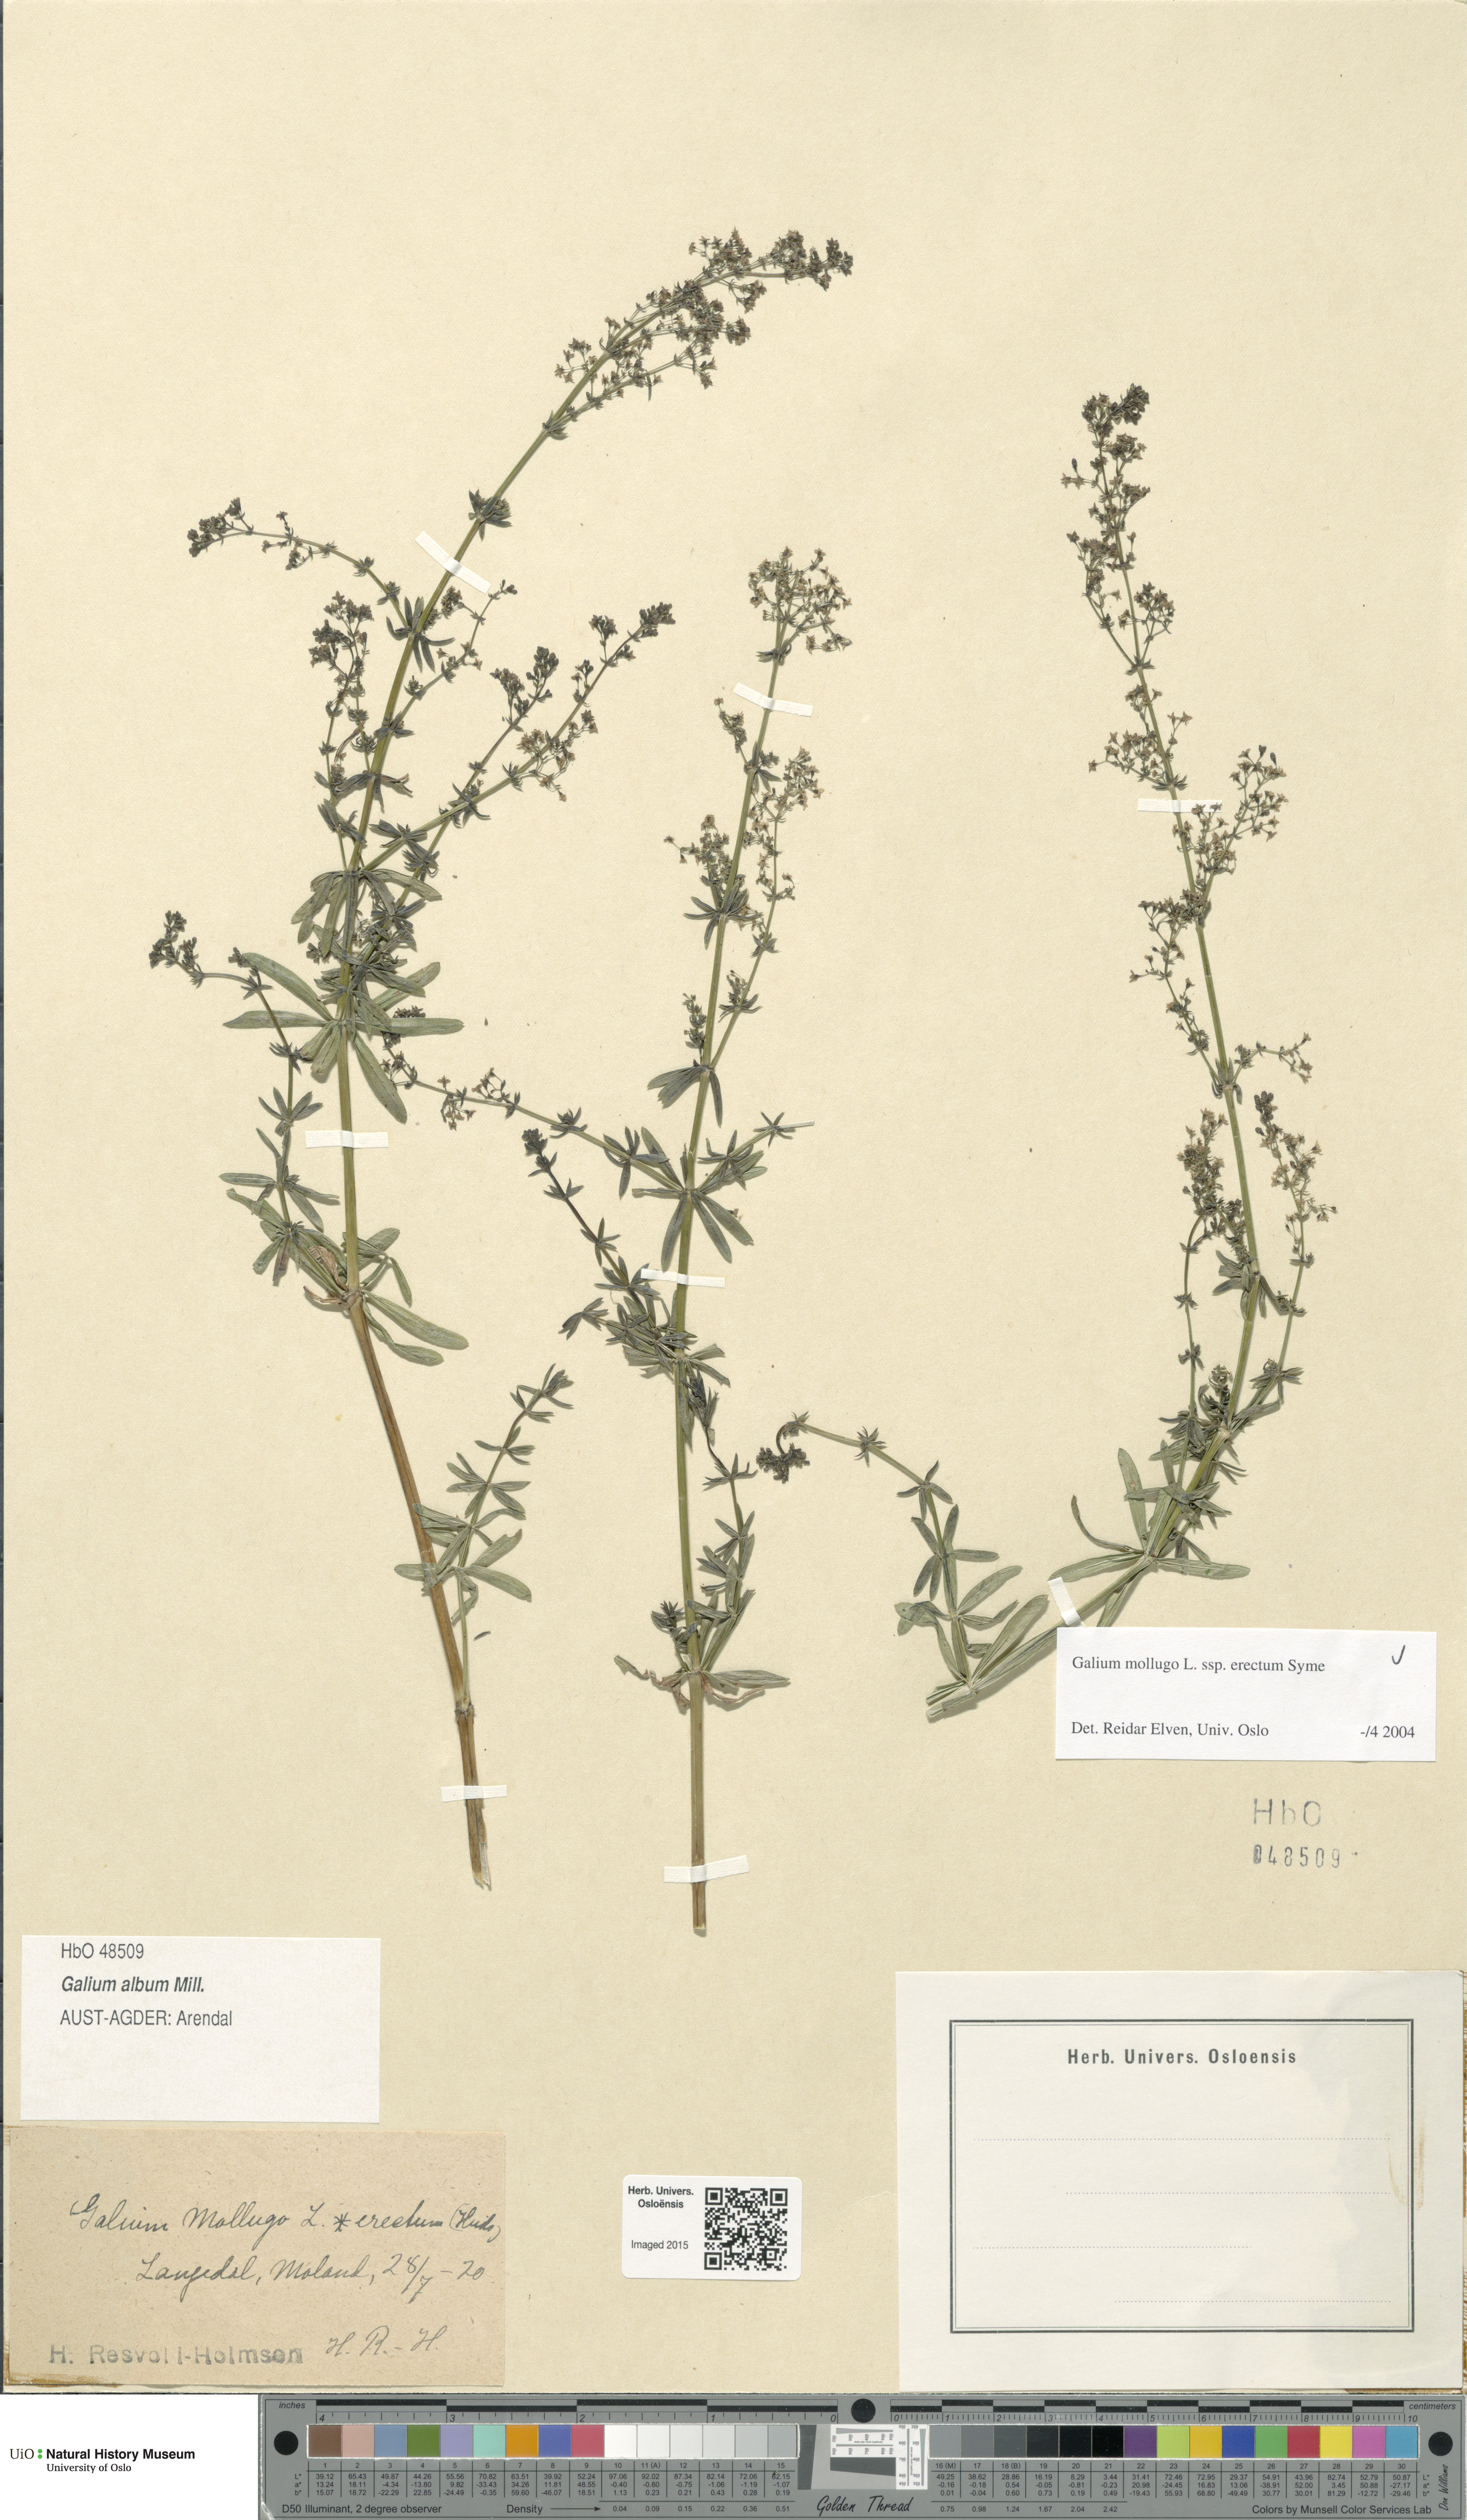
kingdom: Plantae
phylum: Tracheophyta
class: Magnoliopsida
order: Gentianales
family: Rubiaceae
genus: Galium
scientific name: Galium album
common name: White bedstraw
